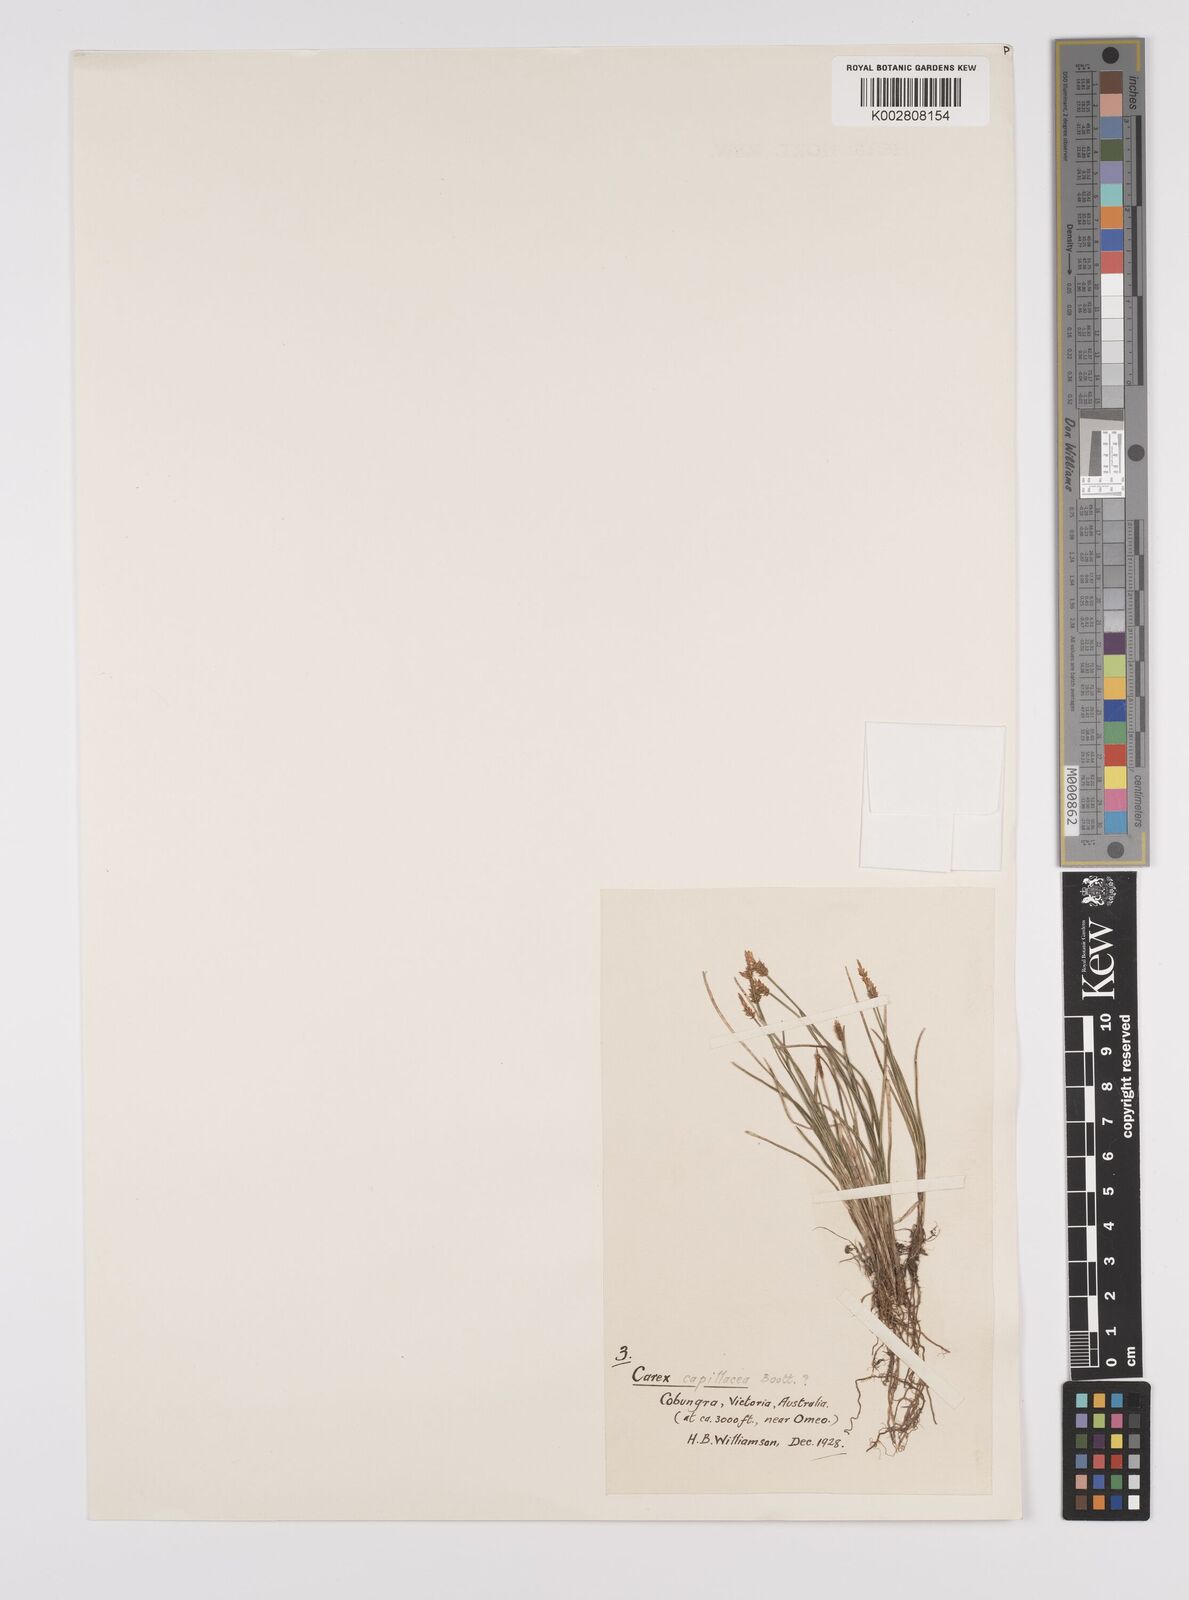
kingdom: Plantae
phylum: Tracheophyta
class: Liliopsida
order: Poales
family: Cyperaceae
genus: Carex
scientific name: Carex capillacea
